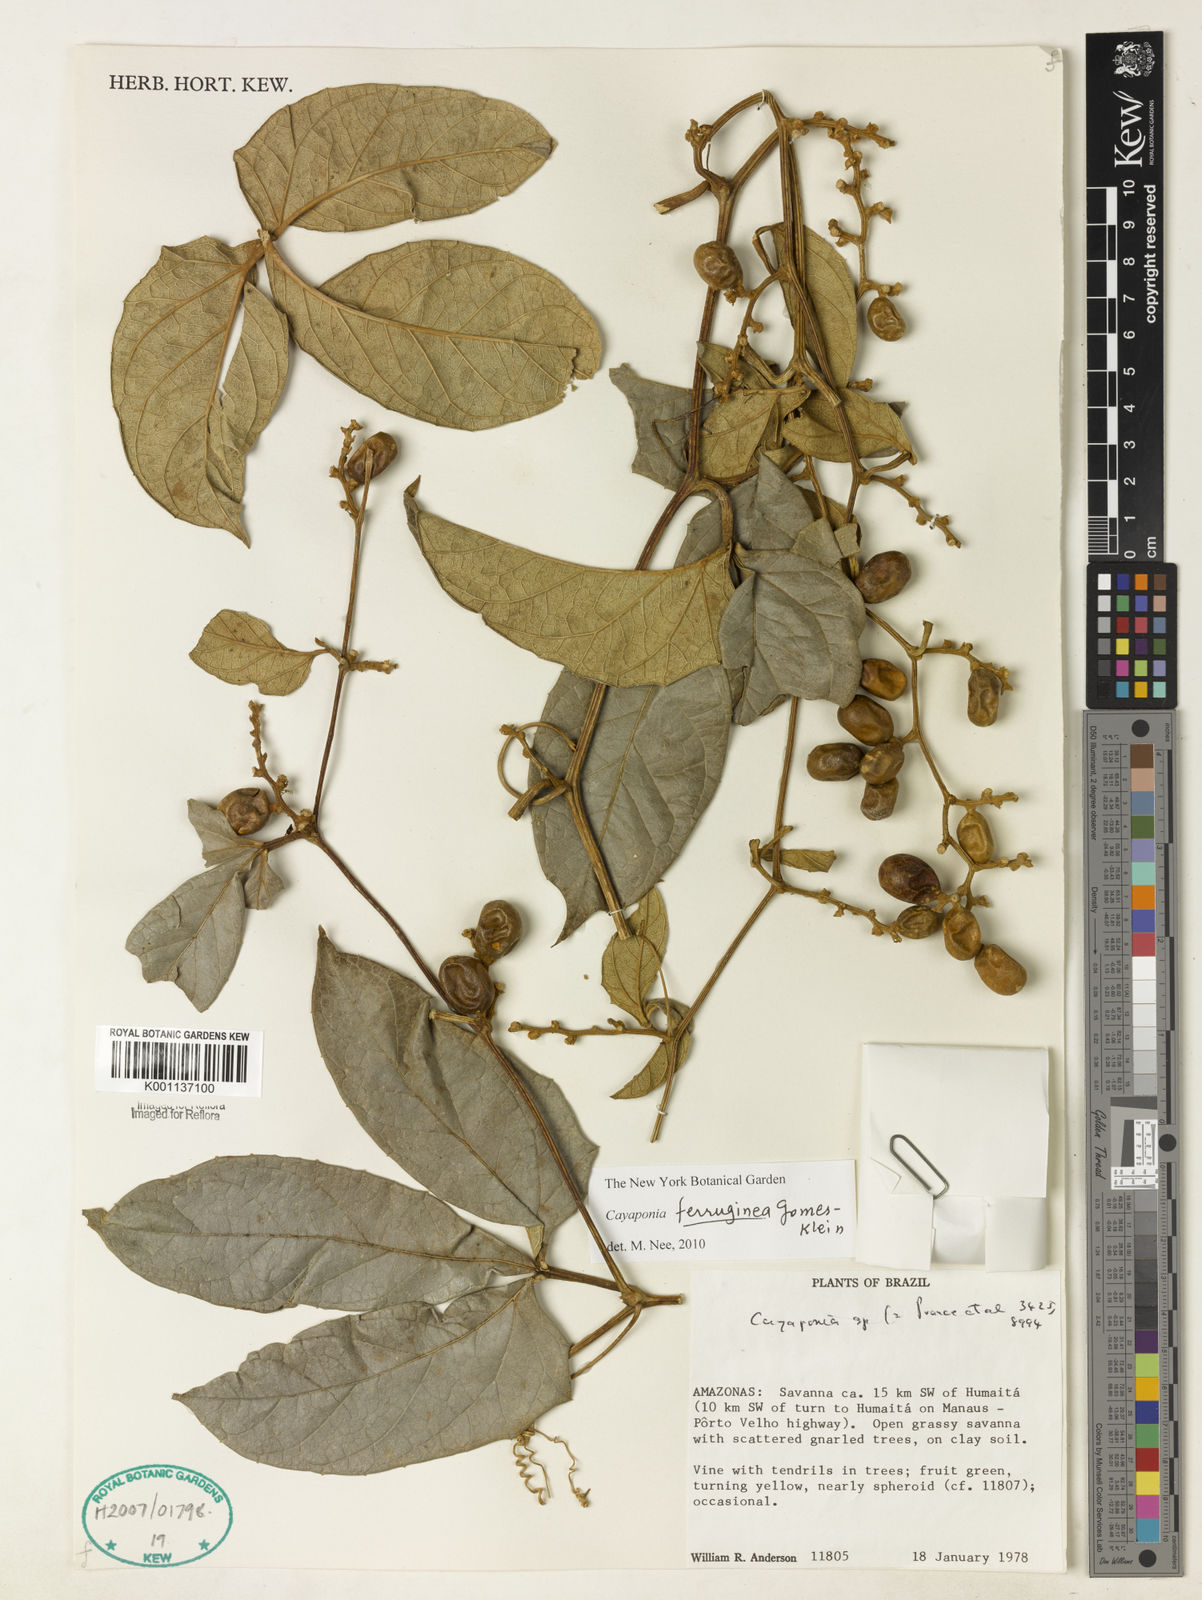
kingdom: Plantae
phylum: Tracheophyta
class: Magnoliopsida
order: Cucurbitales
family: Cucurbitaceae
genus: Cayaponia
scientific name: Cayaponia ferruginea
